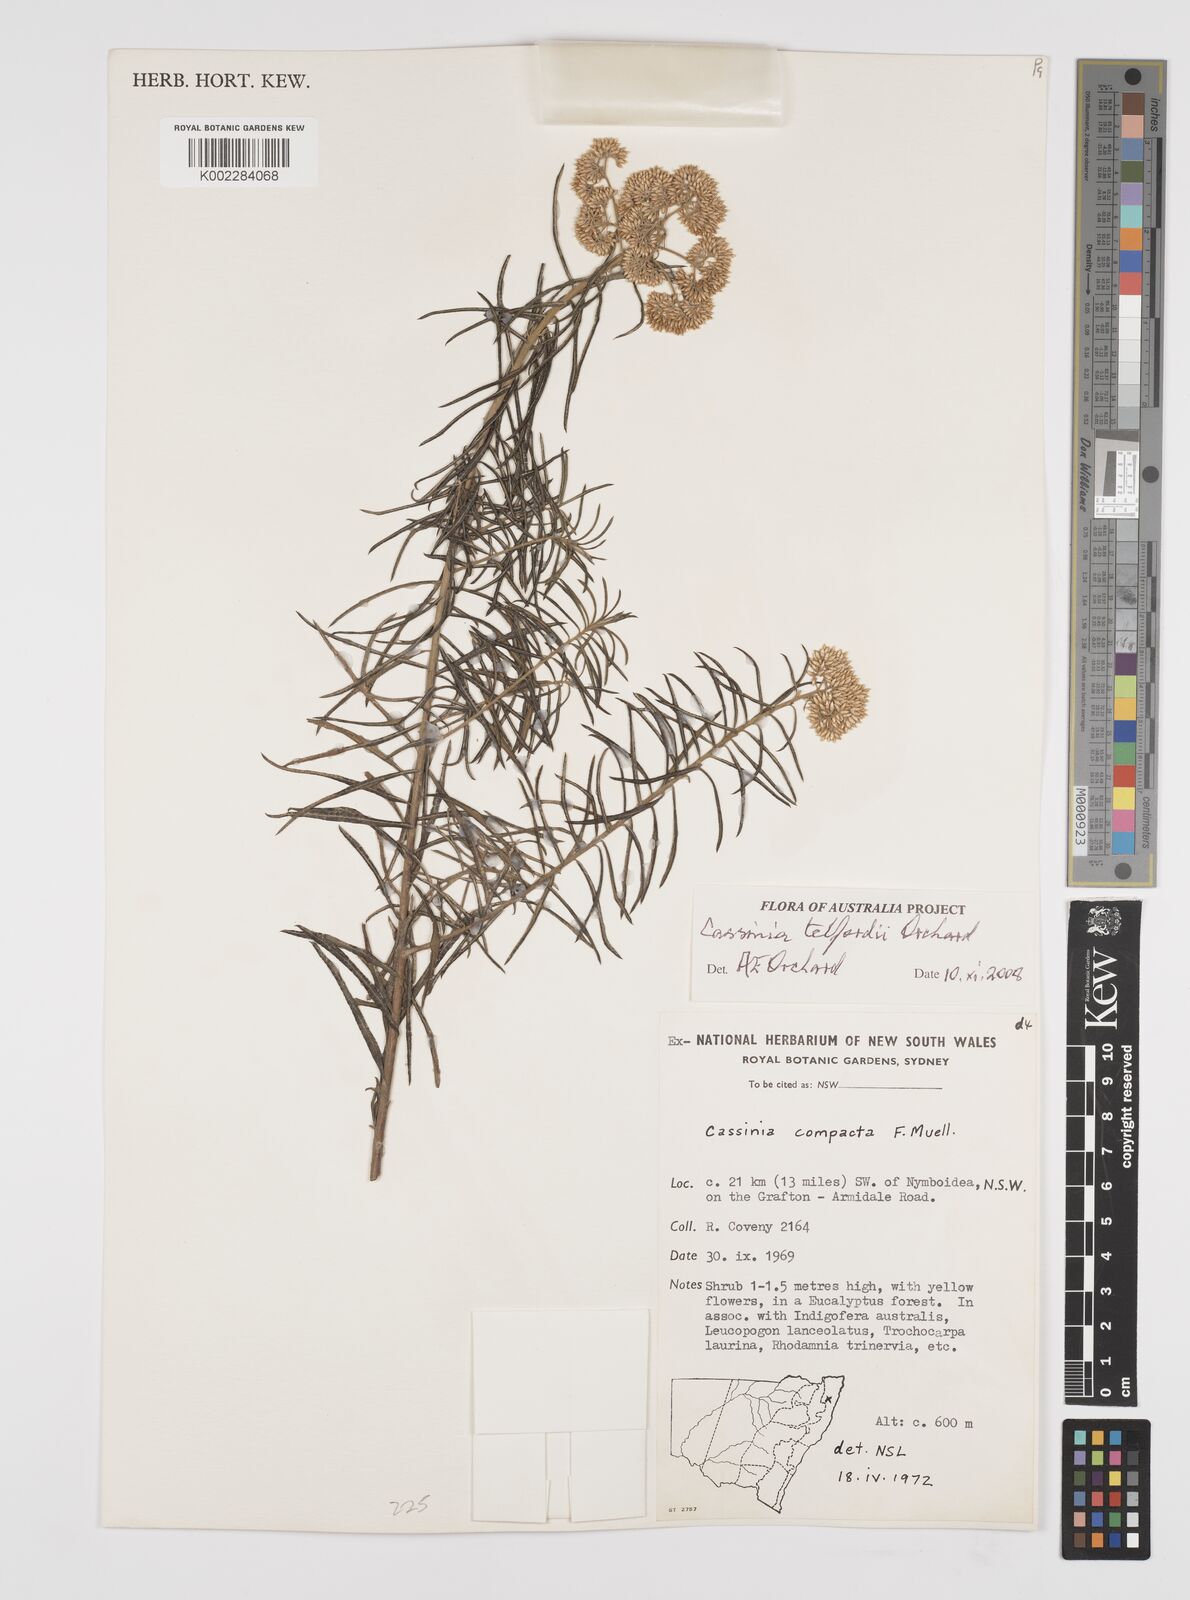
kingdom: Plantae
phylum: Tracheophyta
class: Magnoliopsida
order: Asterales
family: Asteraceae
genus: Cassinia
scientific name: Cassinia telfordii
